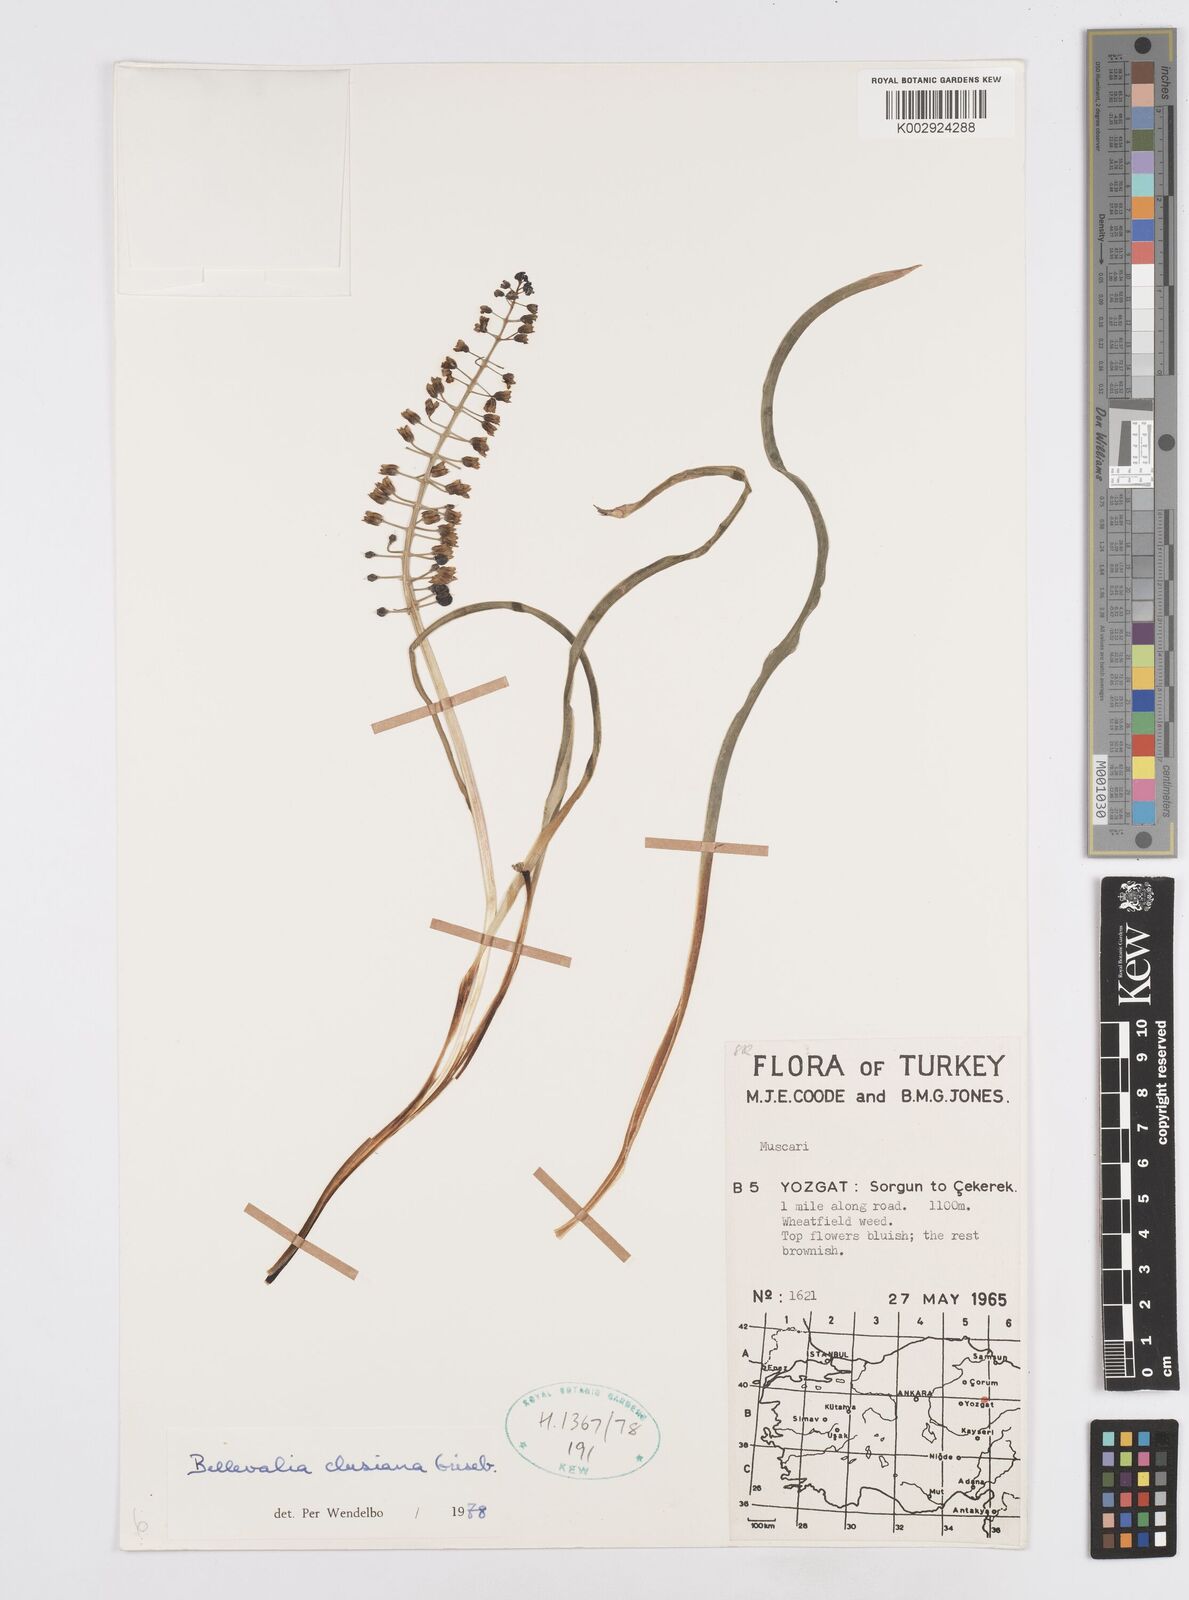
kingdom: Plantae
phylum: Tracheophyta
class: Liliopsida
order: Asparagales
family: Asparagaceae
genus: Bellevalia
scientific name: Bellevalia clusiana
